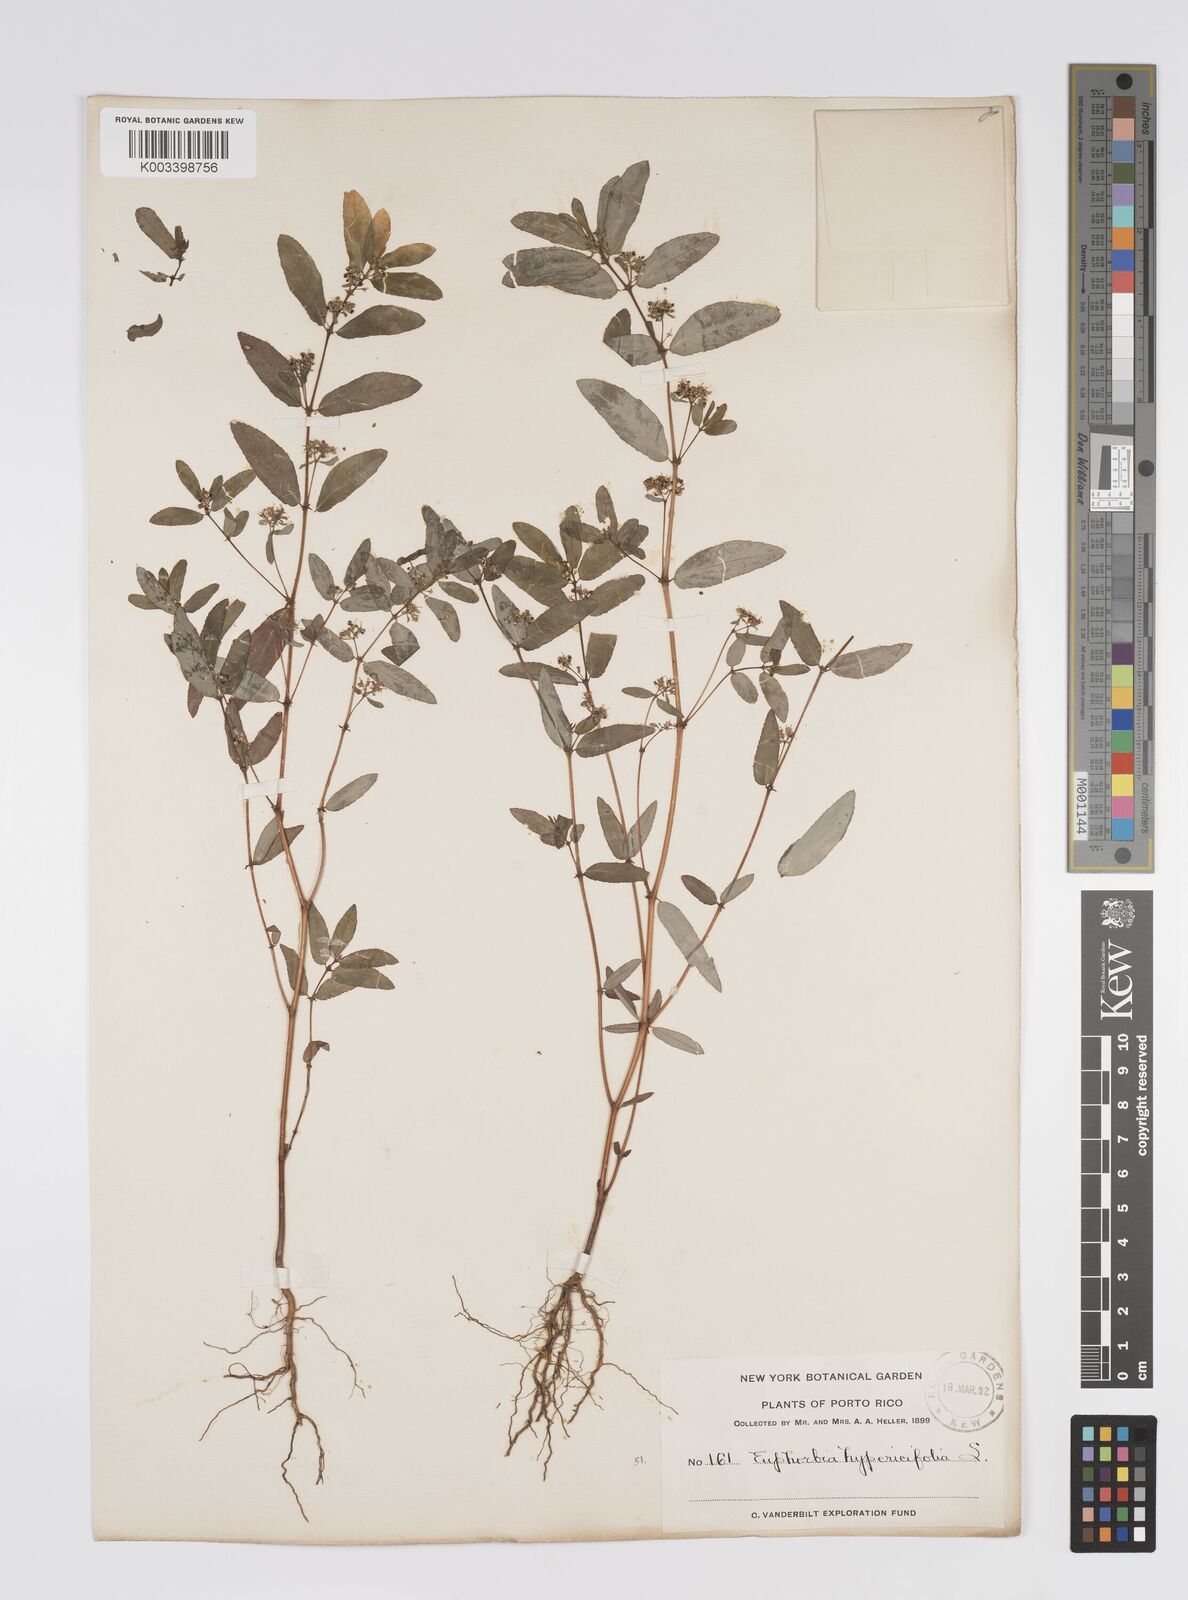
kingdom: Plantae
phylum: Tracheophyta
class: Magnoliopsida
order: Malpighiales
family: Euphorbiaceae
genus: Euphorbia
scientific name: Euphorbia
